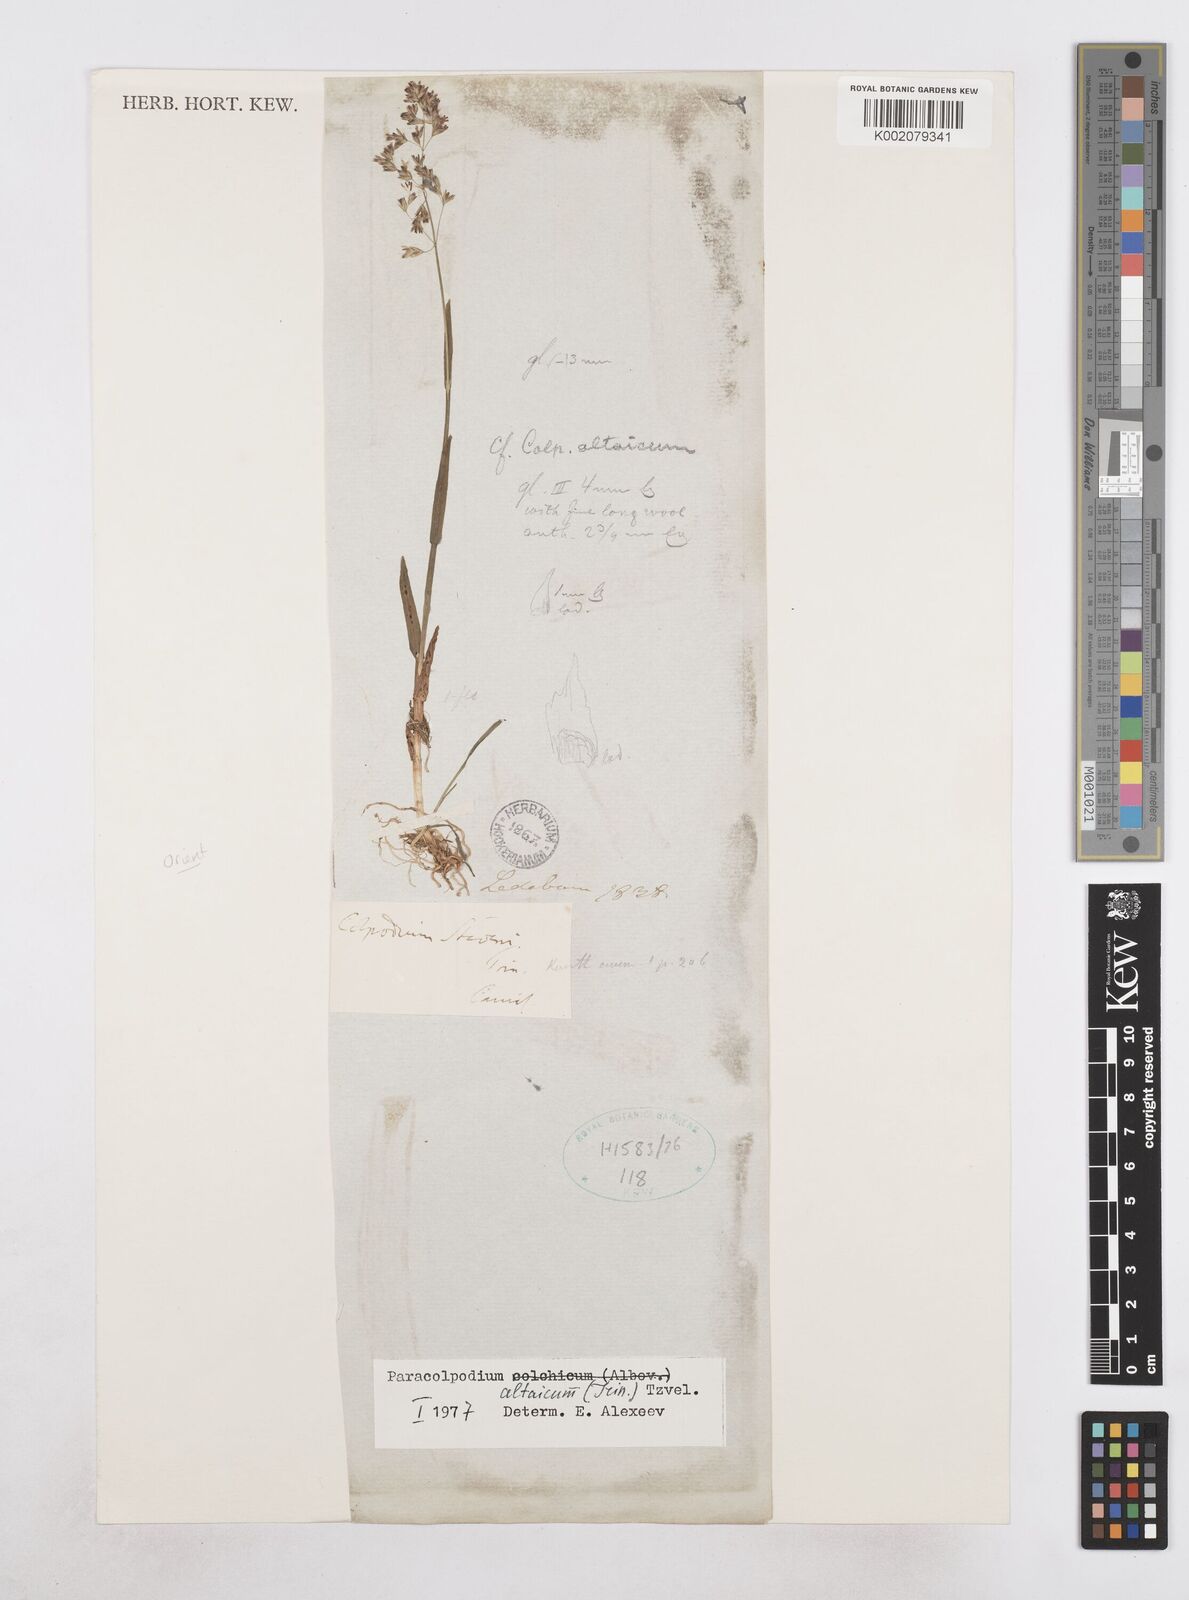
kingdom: Plantae
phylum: Tracheophyta
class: Liliopsida
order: Poales
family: Poaceae
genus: Paracolpodium
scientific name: Paracolpodium colchicum
